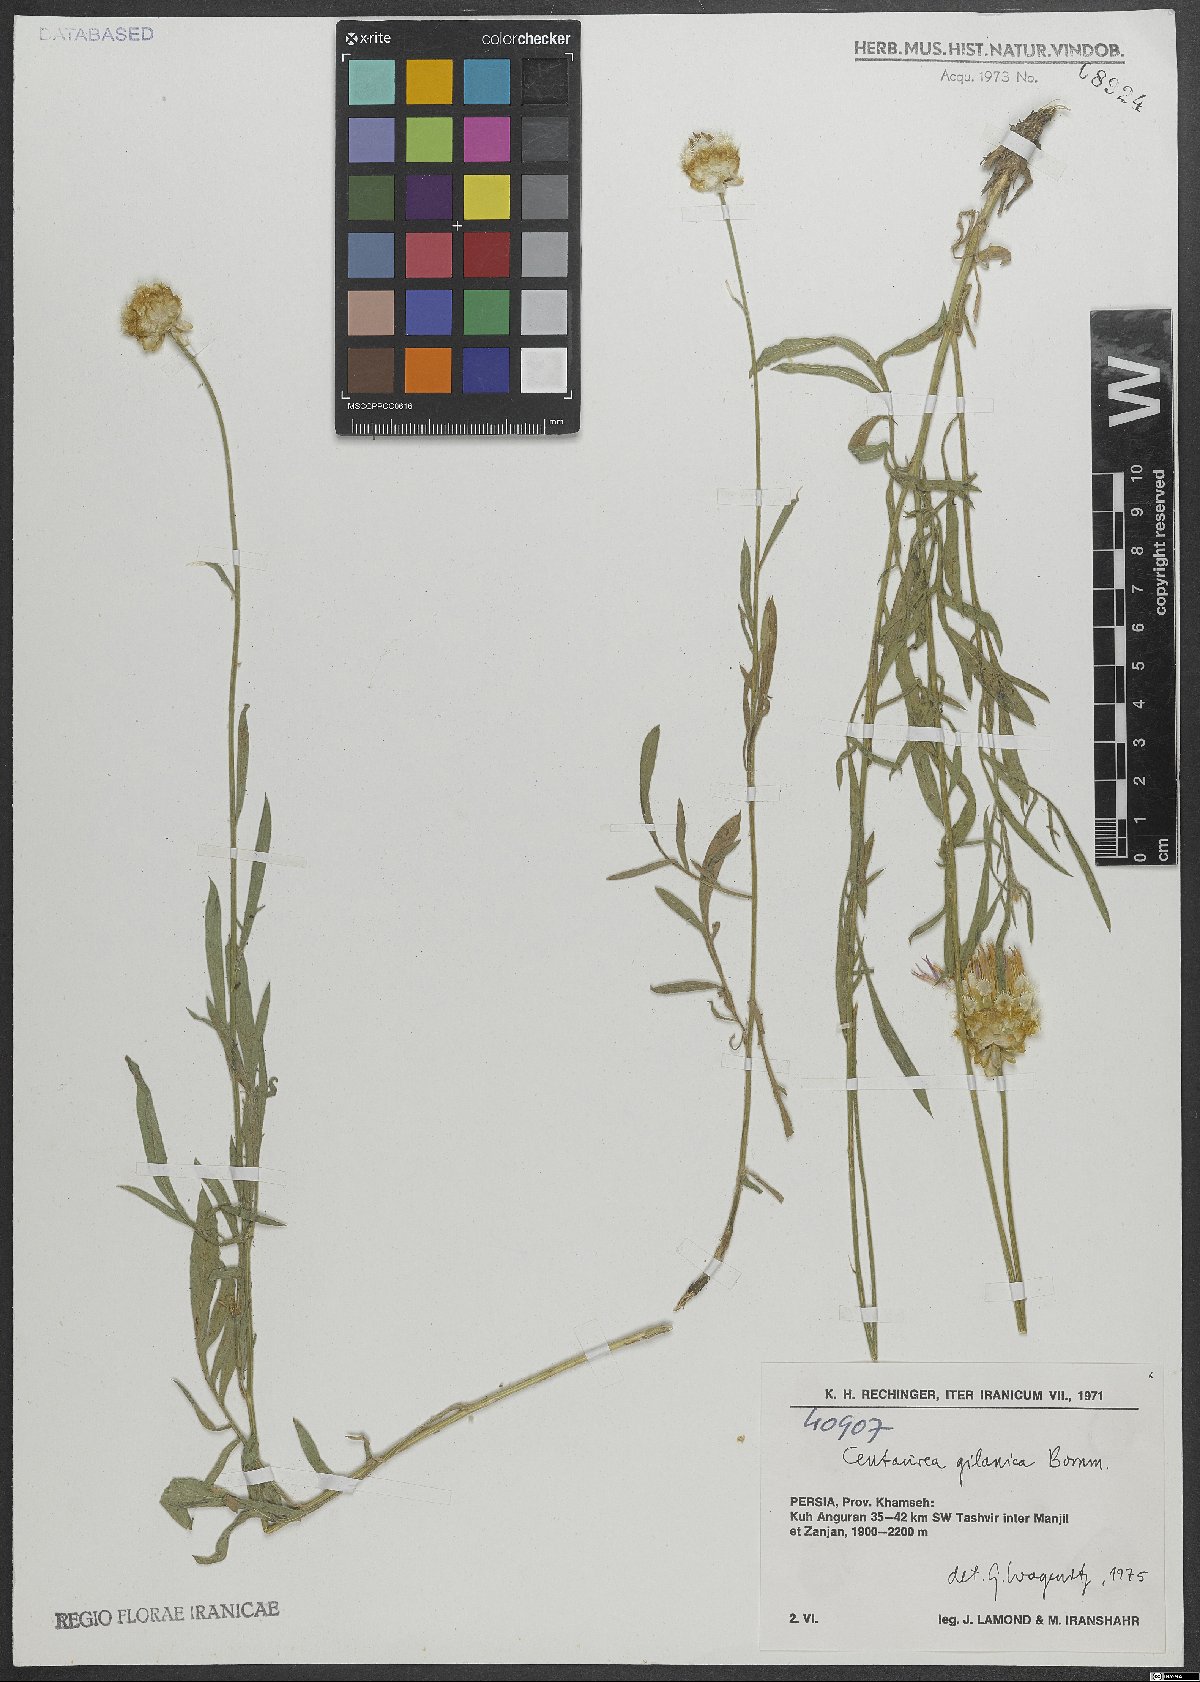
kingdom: Plantae
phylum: Tracheophyta
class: Magnoliopsida
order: Asterales
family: Asteraceae
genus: Psephellus
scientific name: Psephellus gilanicus
